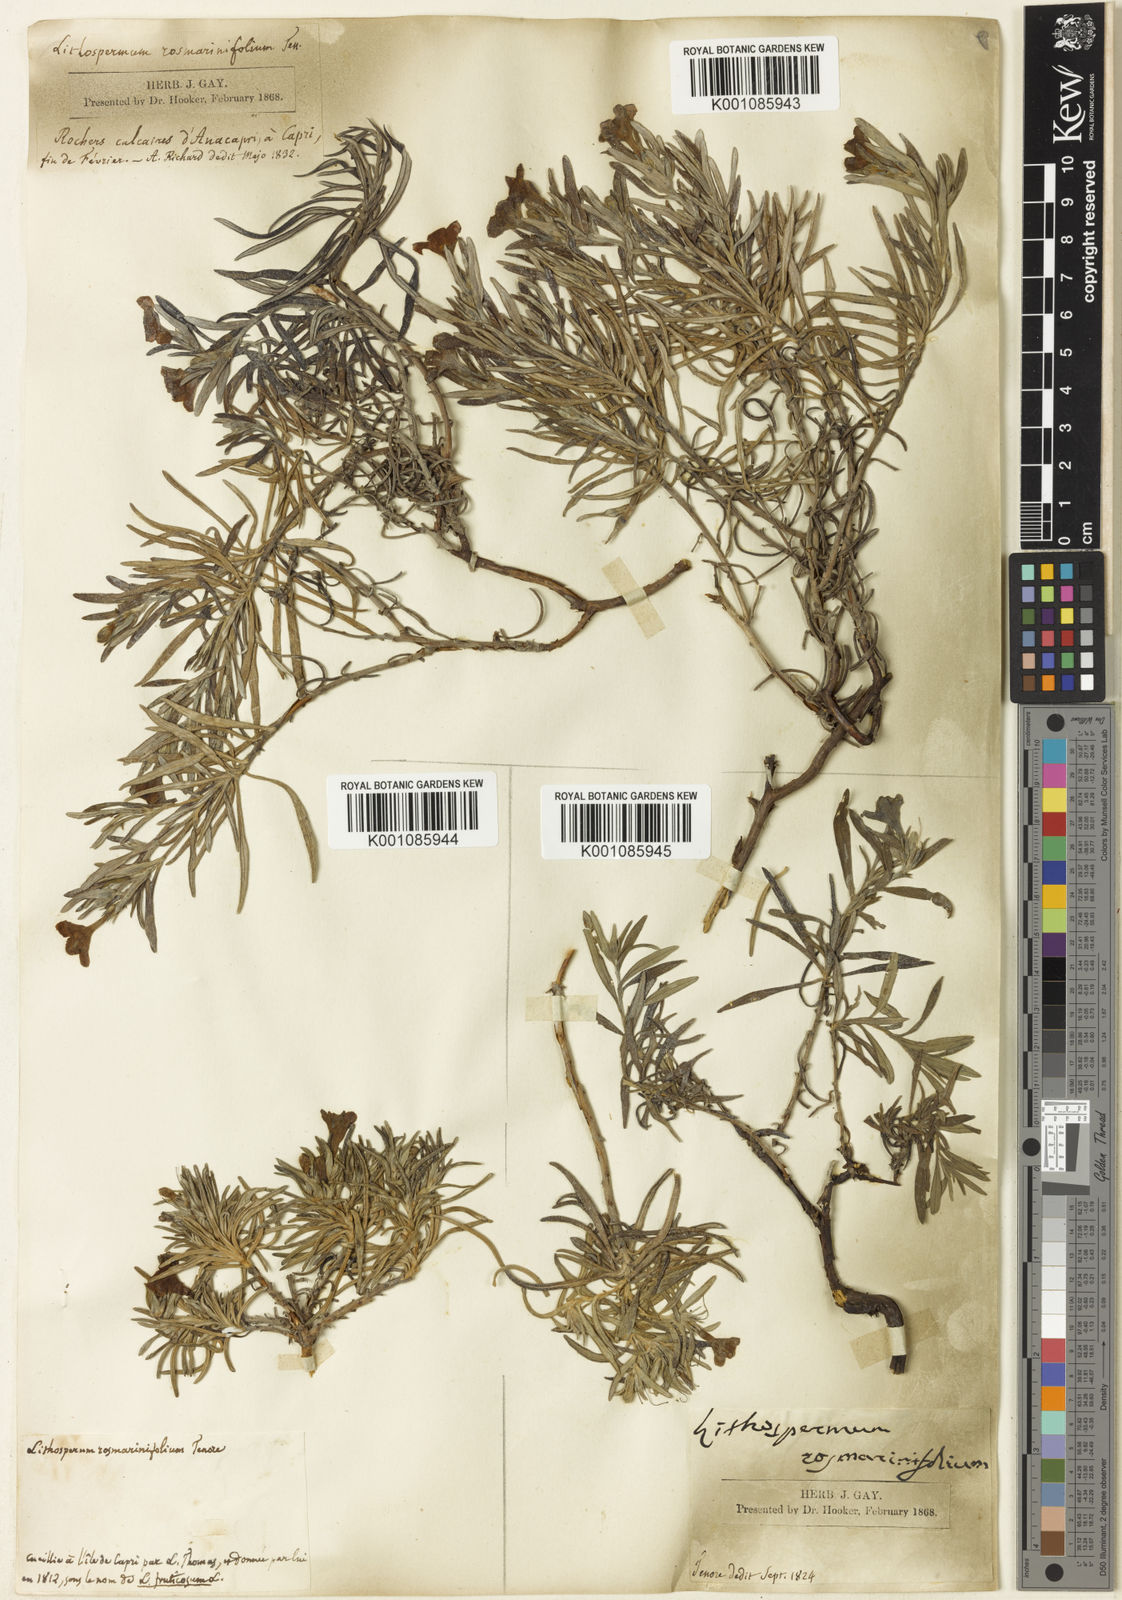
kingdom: Plantae
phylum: Tracheophyta
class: Magnoliopsida
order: Boraginales
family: Boraginaceae
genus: Glandora
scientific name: Glandora rosmarinifolia
